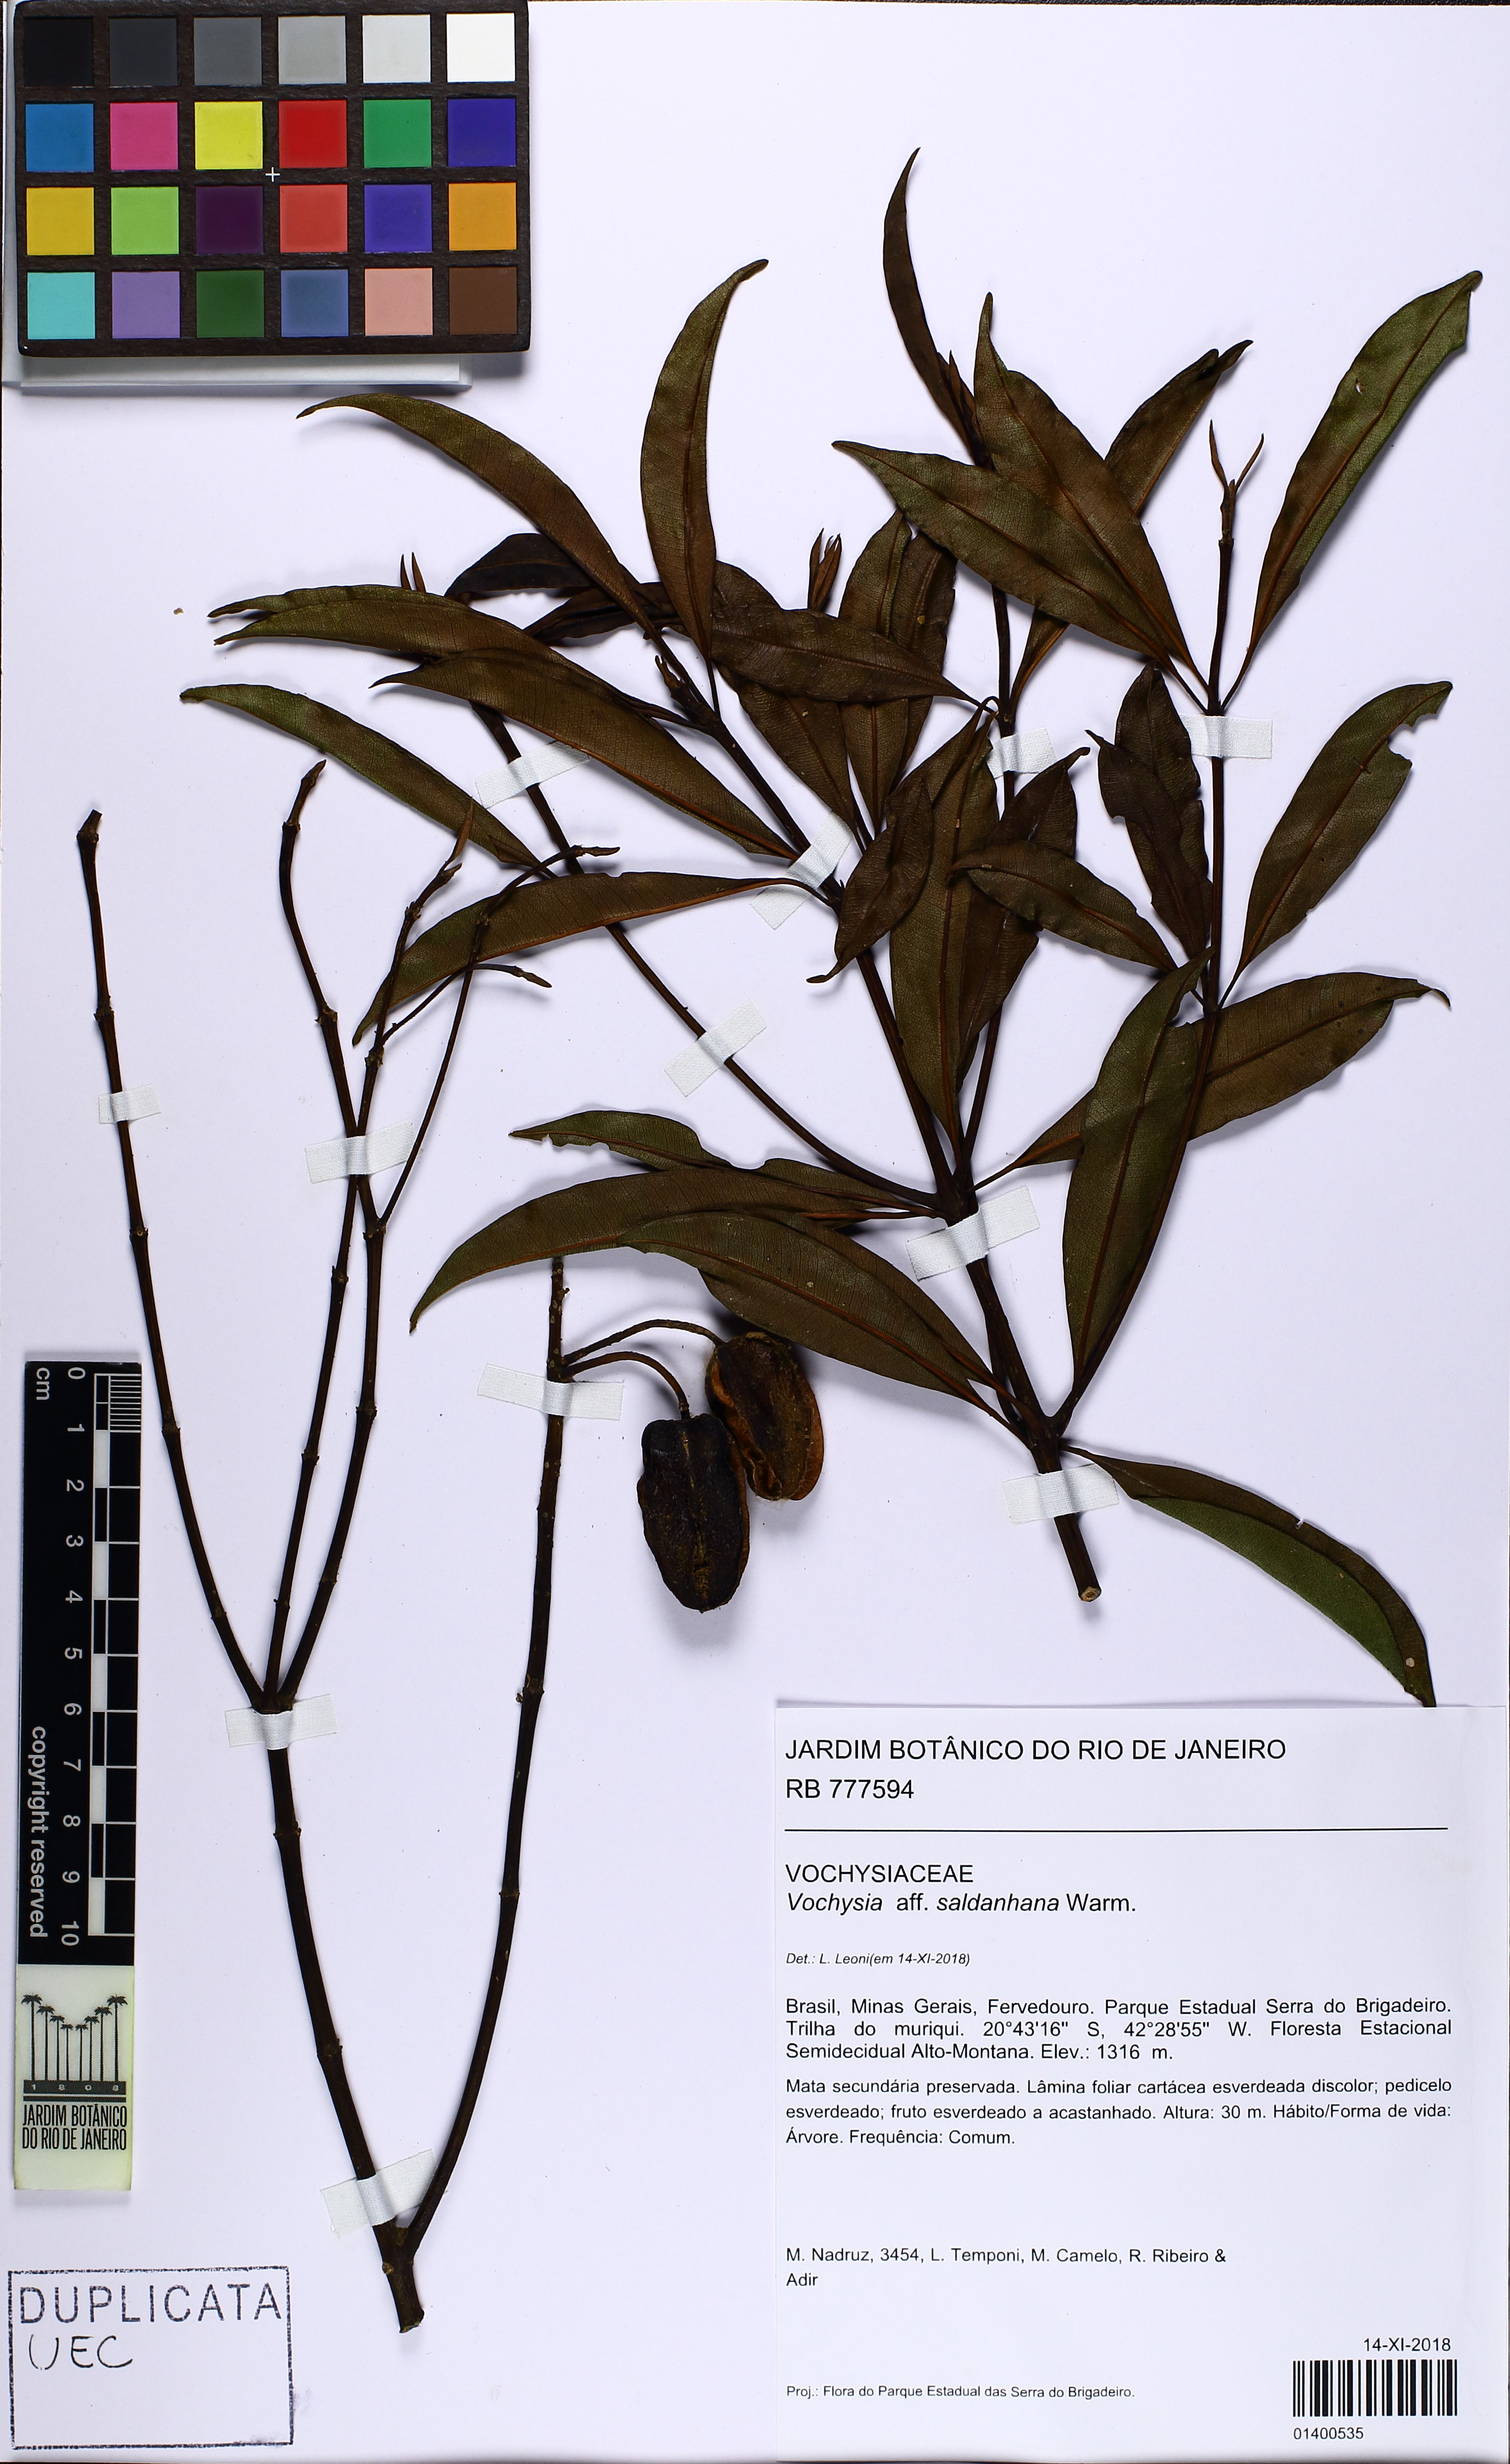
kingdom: Plantae
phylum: Tracheophyta
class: Magnoliopsida
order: Myrtales
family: Vochysiaceae
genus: Vochysia
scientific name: Vochysia saldanhana
